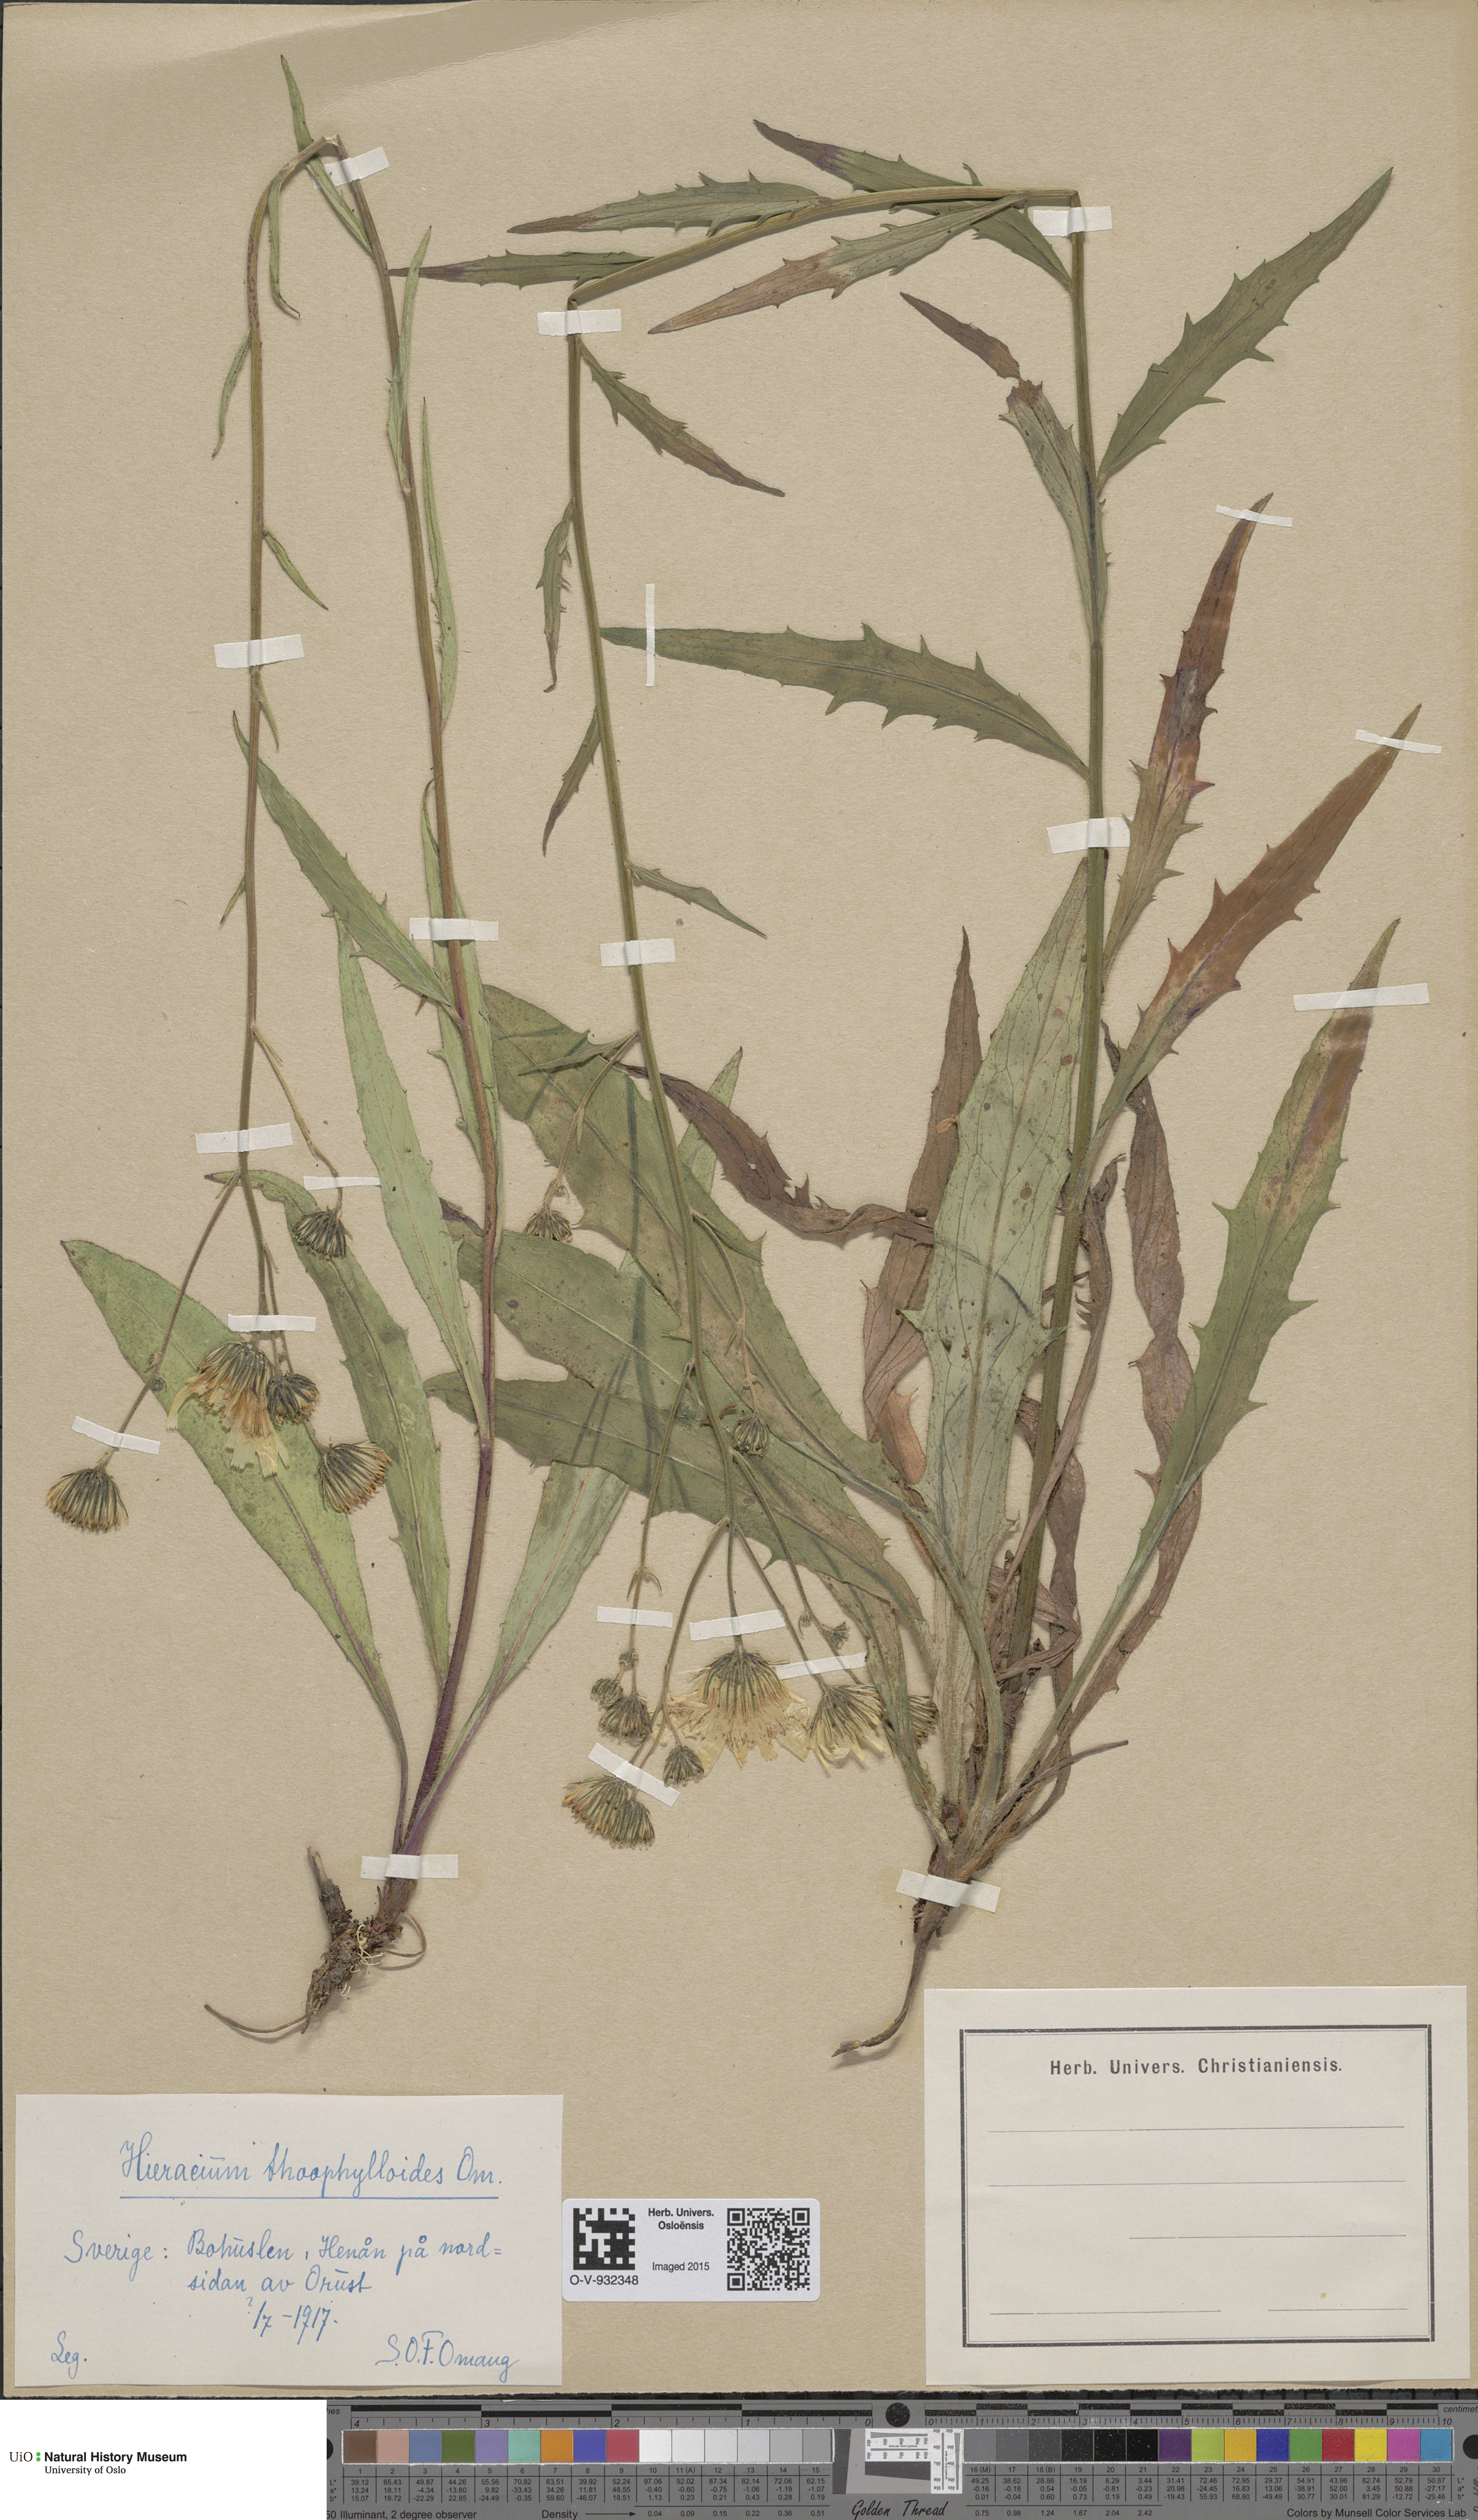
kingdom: Plantae
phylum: Tracheophyta
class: Magnoliopsida
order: Asterales
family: Asteraceae
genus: Hieracium
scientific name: Hieracium
